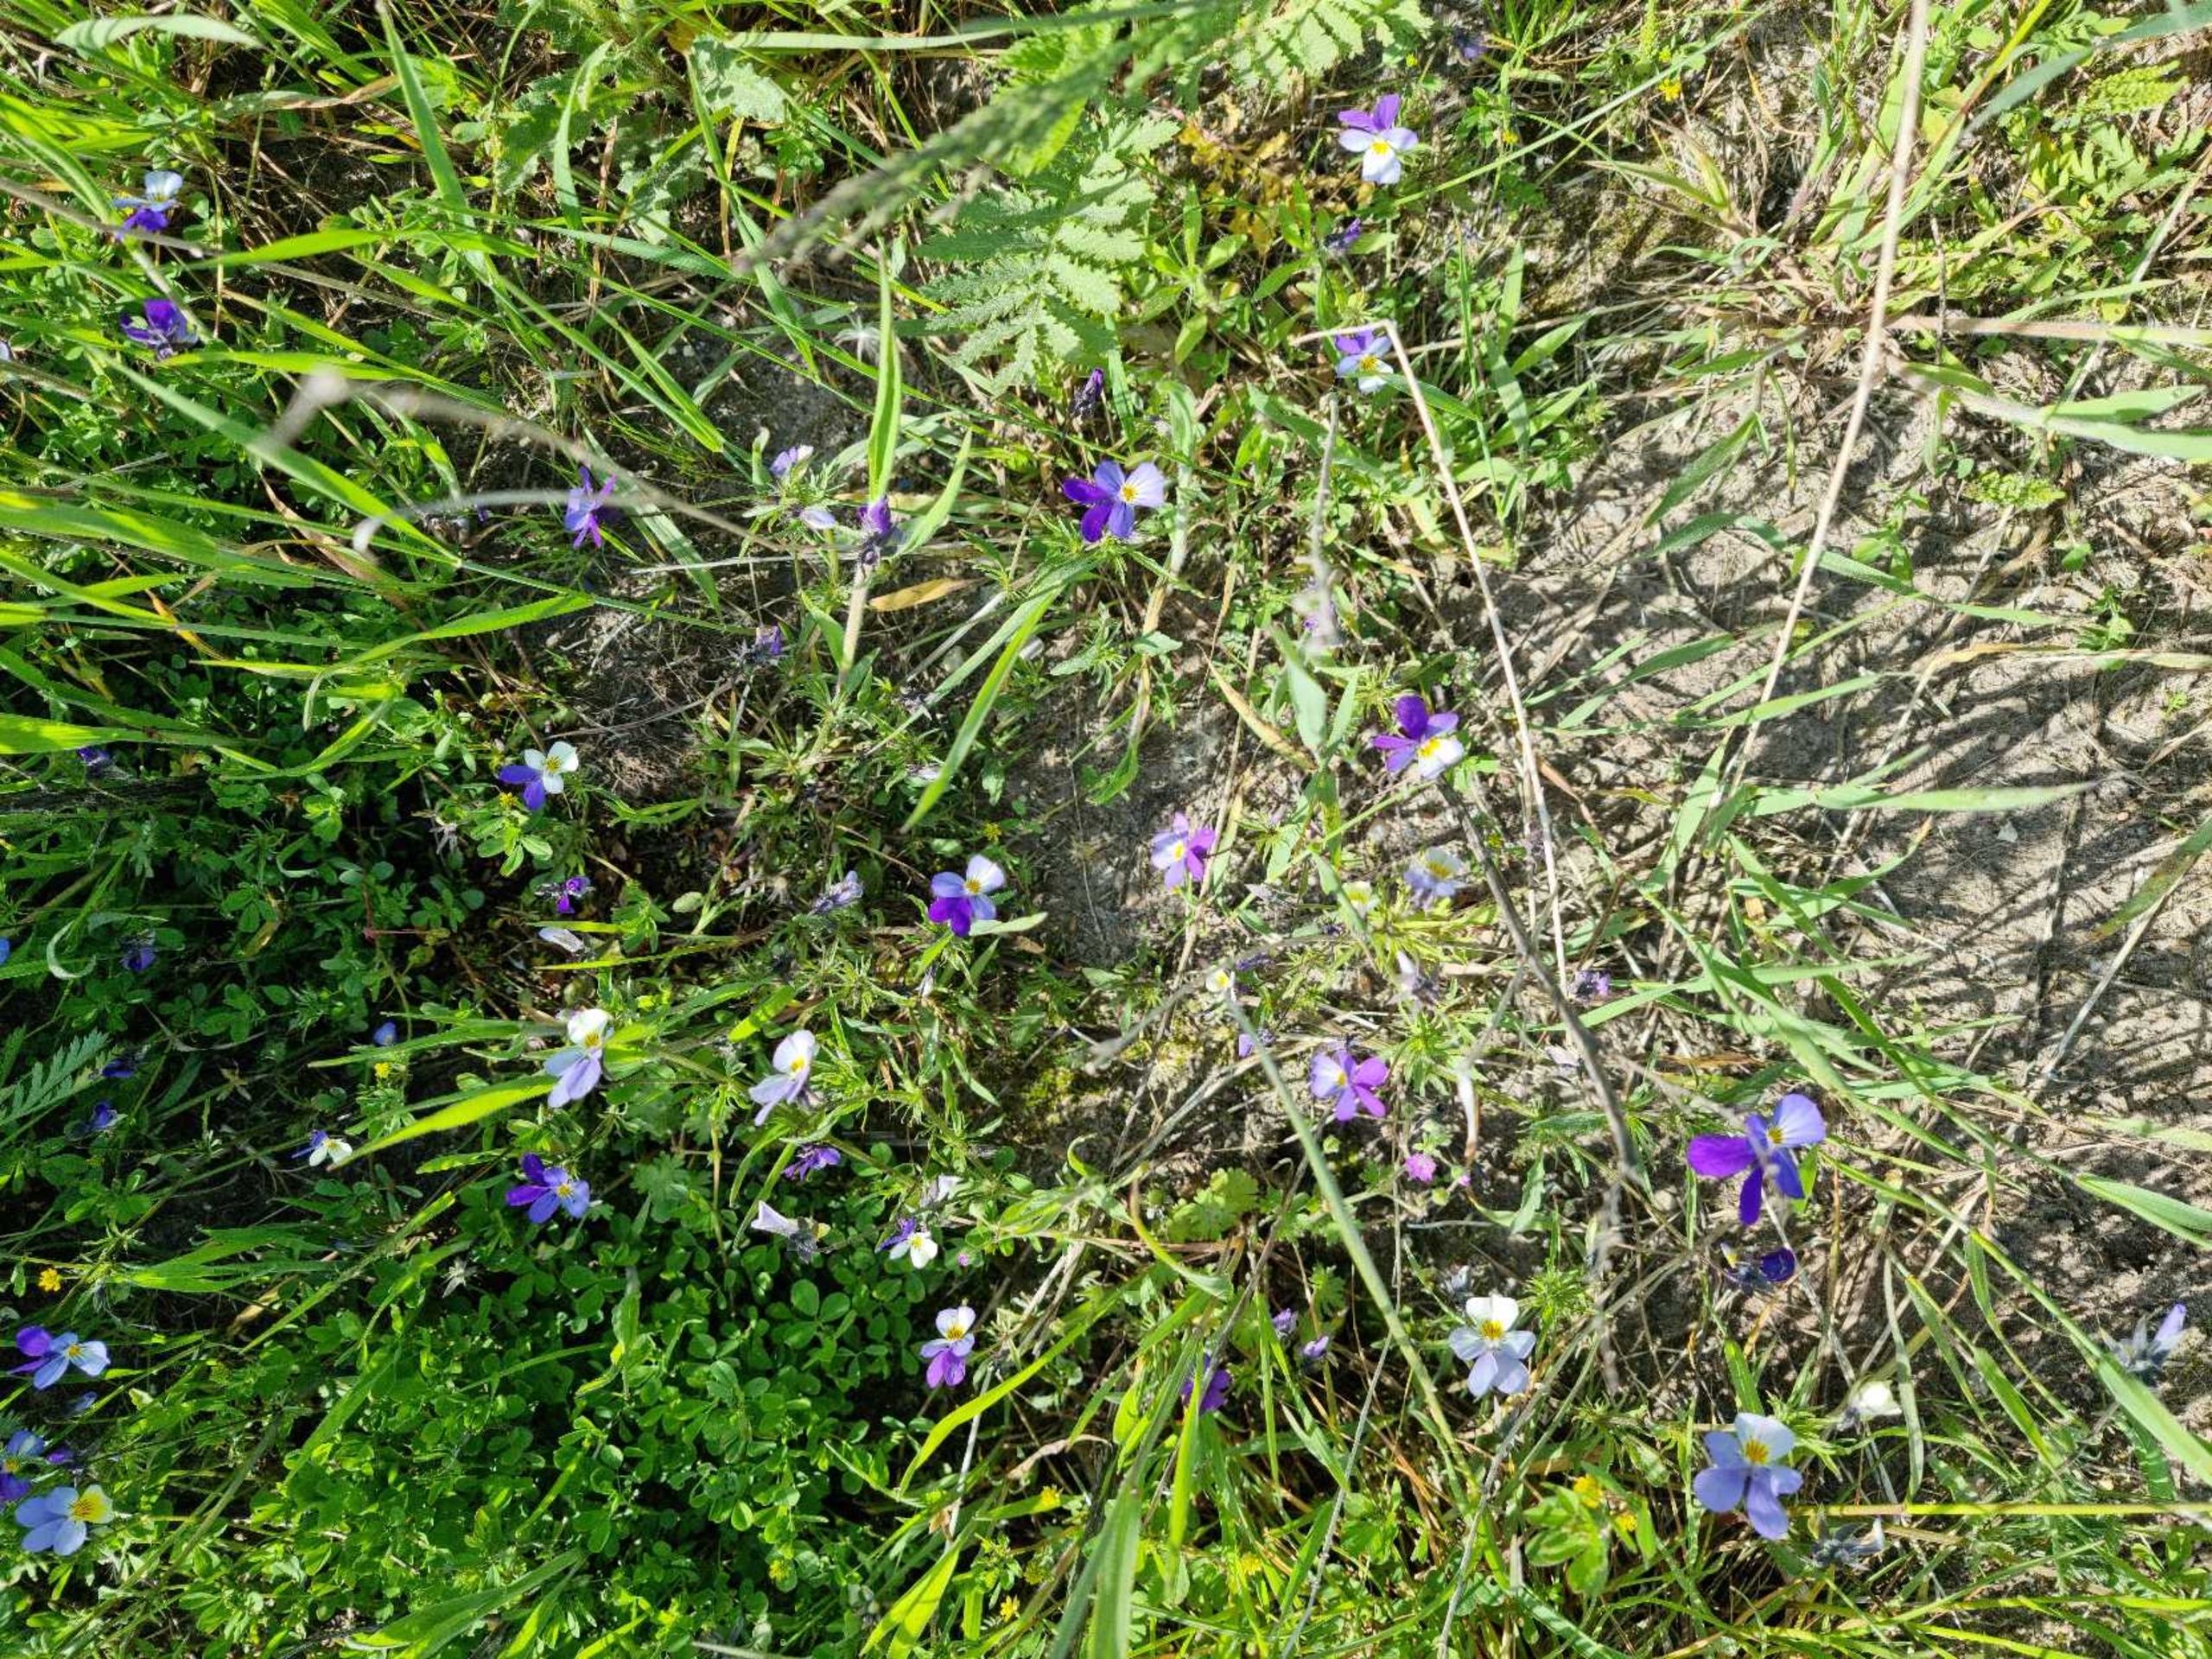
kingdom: Plantae
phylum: Tracheophyta
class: Magnoliopsida
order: Malpighiales
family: Violaceae
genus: Viola
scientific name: Viola tricolor
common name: Stedmoderblomst
